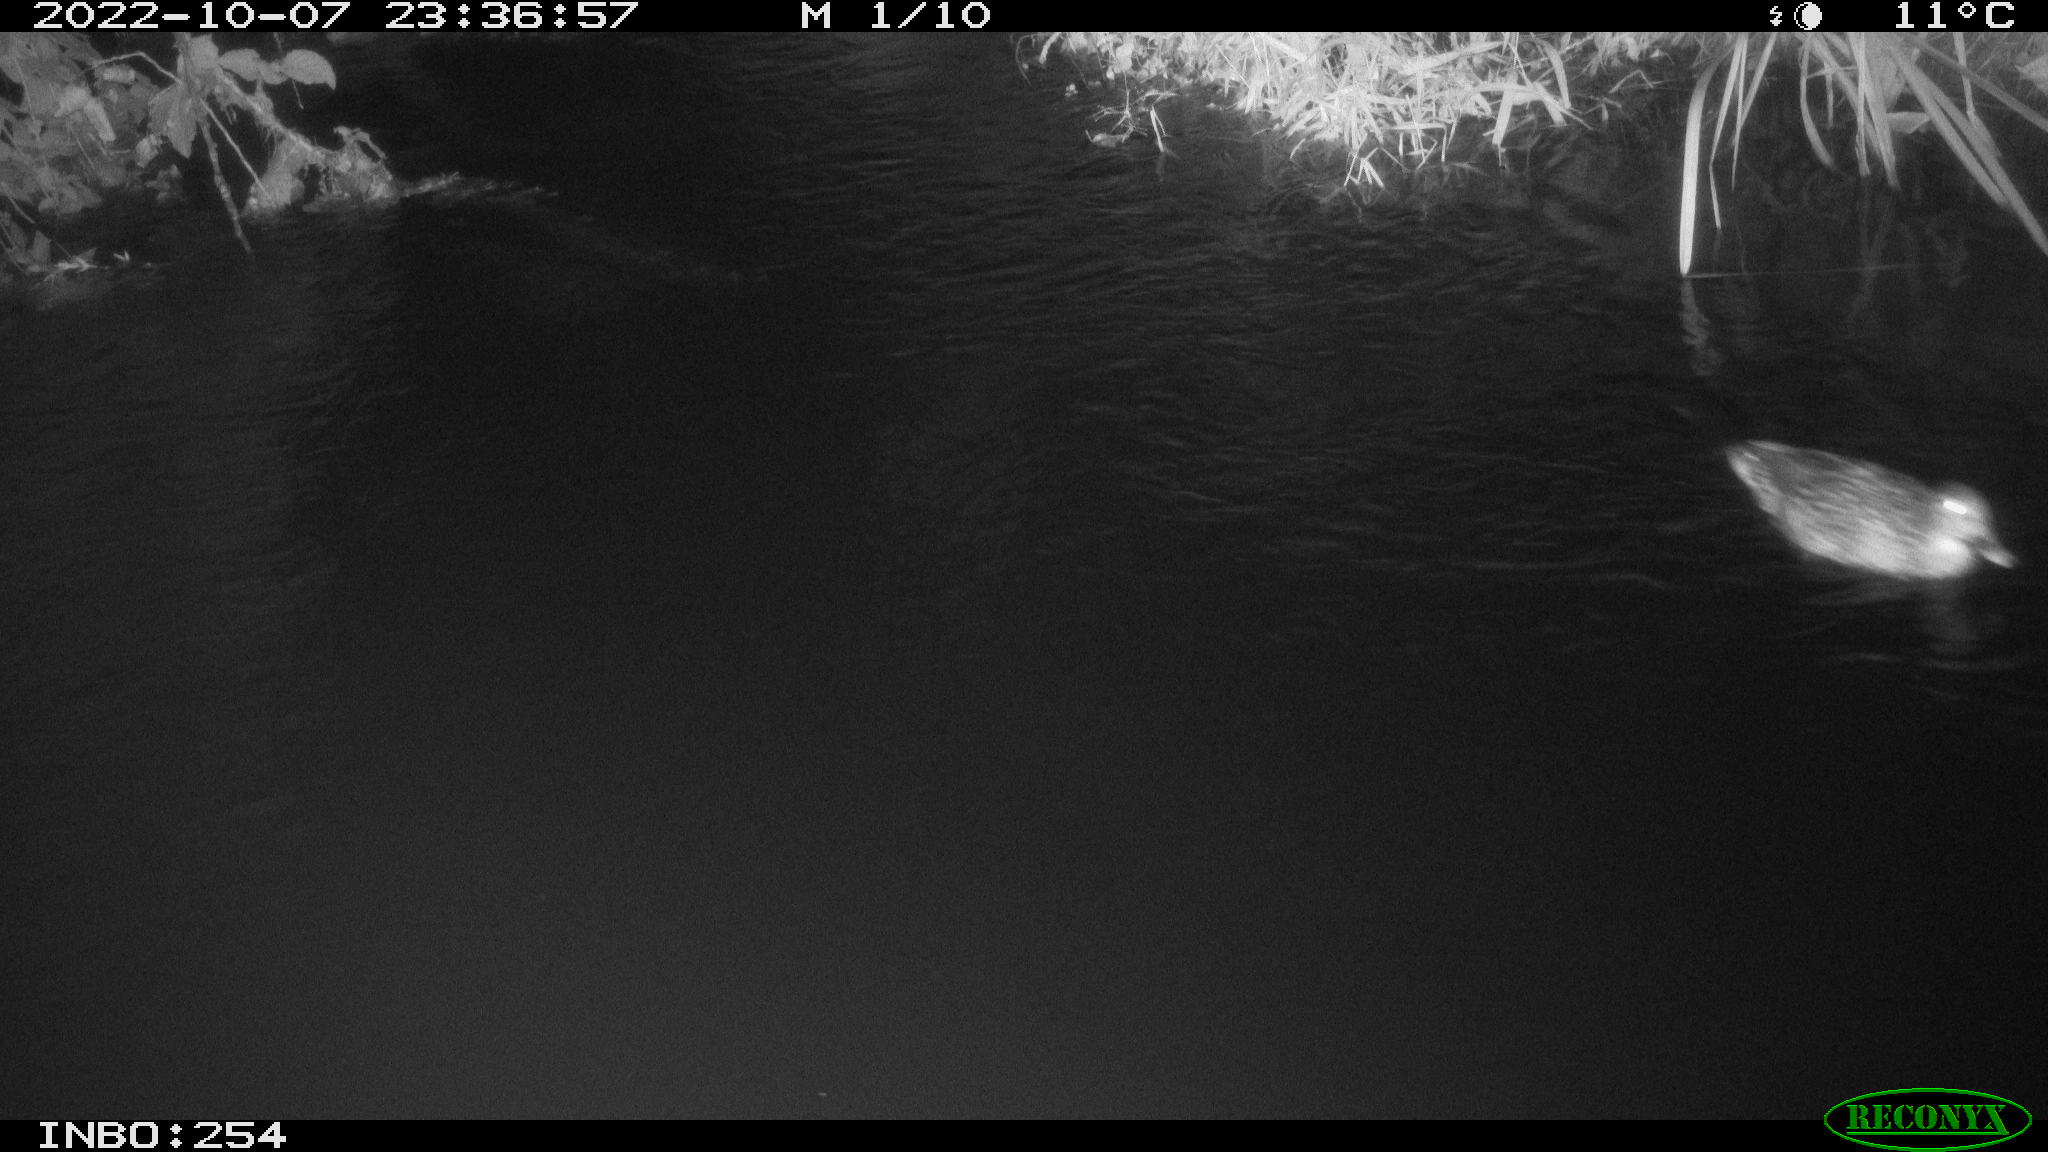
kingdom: Animalia
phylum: Chordata
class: Aves
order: Anseriformes
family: Anatidae
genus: Anas
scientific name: Anas
